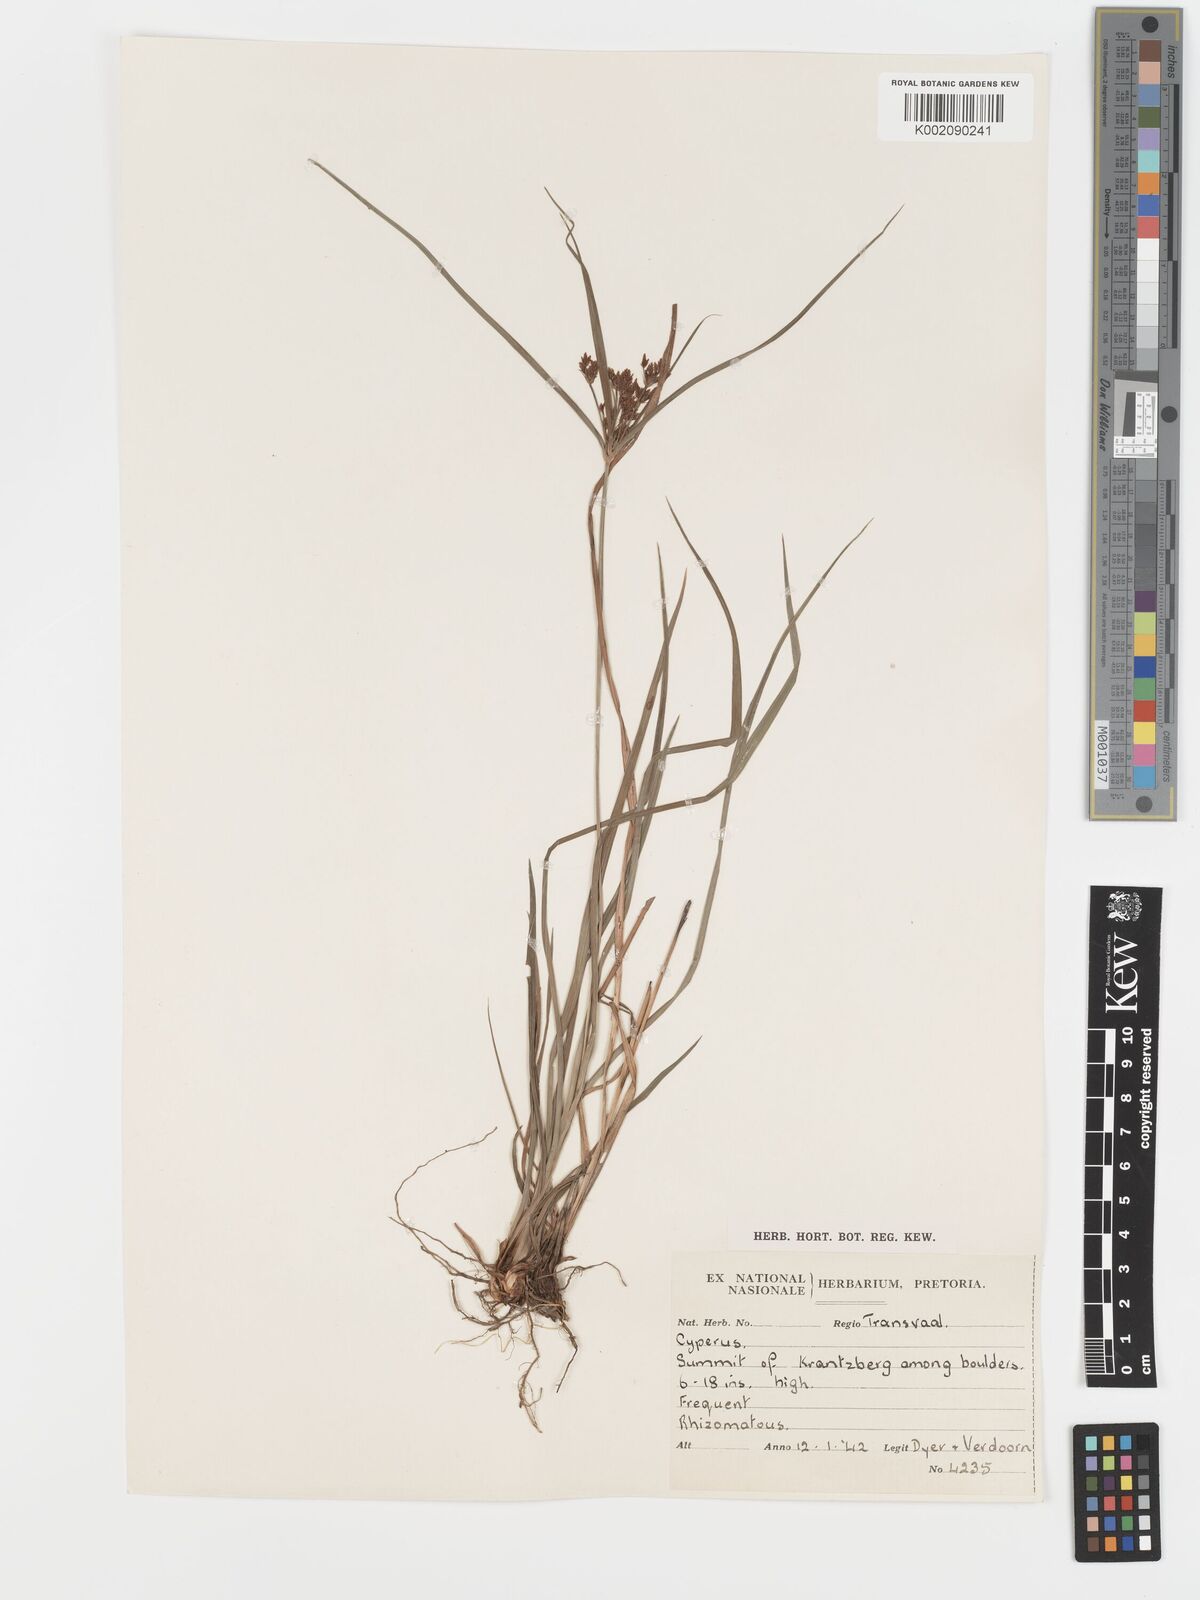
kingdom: Plantae
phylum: Tracheophyta
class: Liliopsida
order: Poales
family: Cyperaceae
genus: Cyperus
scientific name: Cyperus leptocladus
